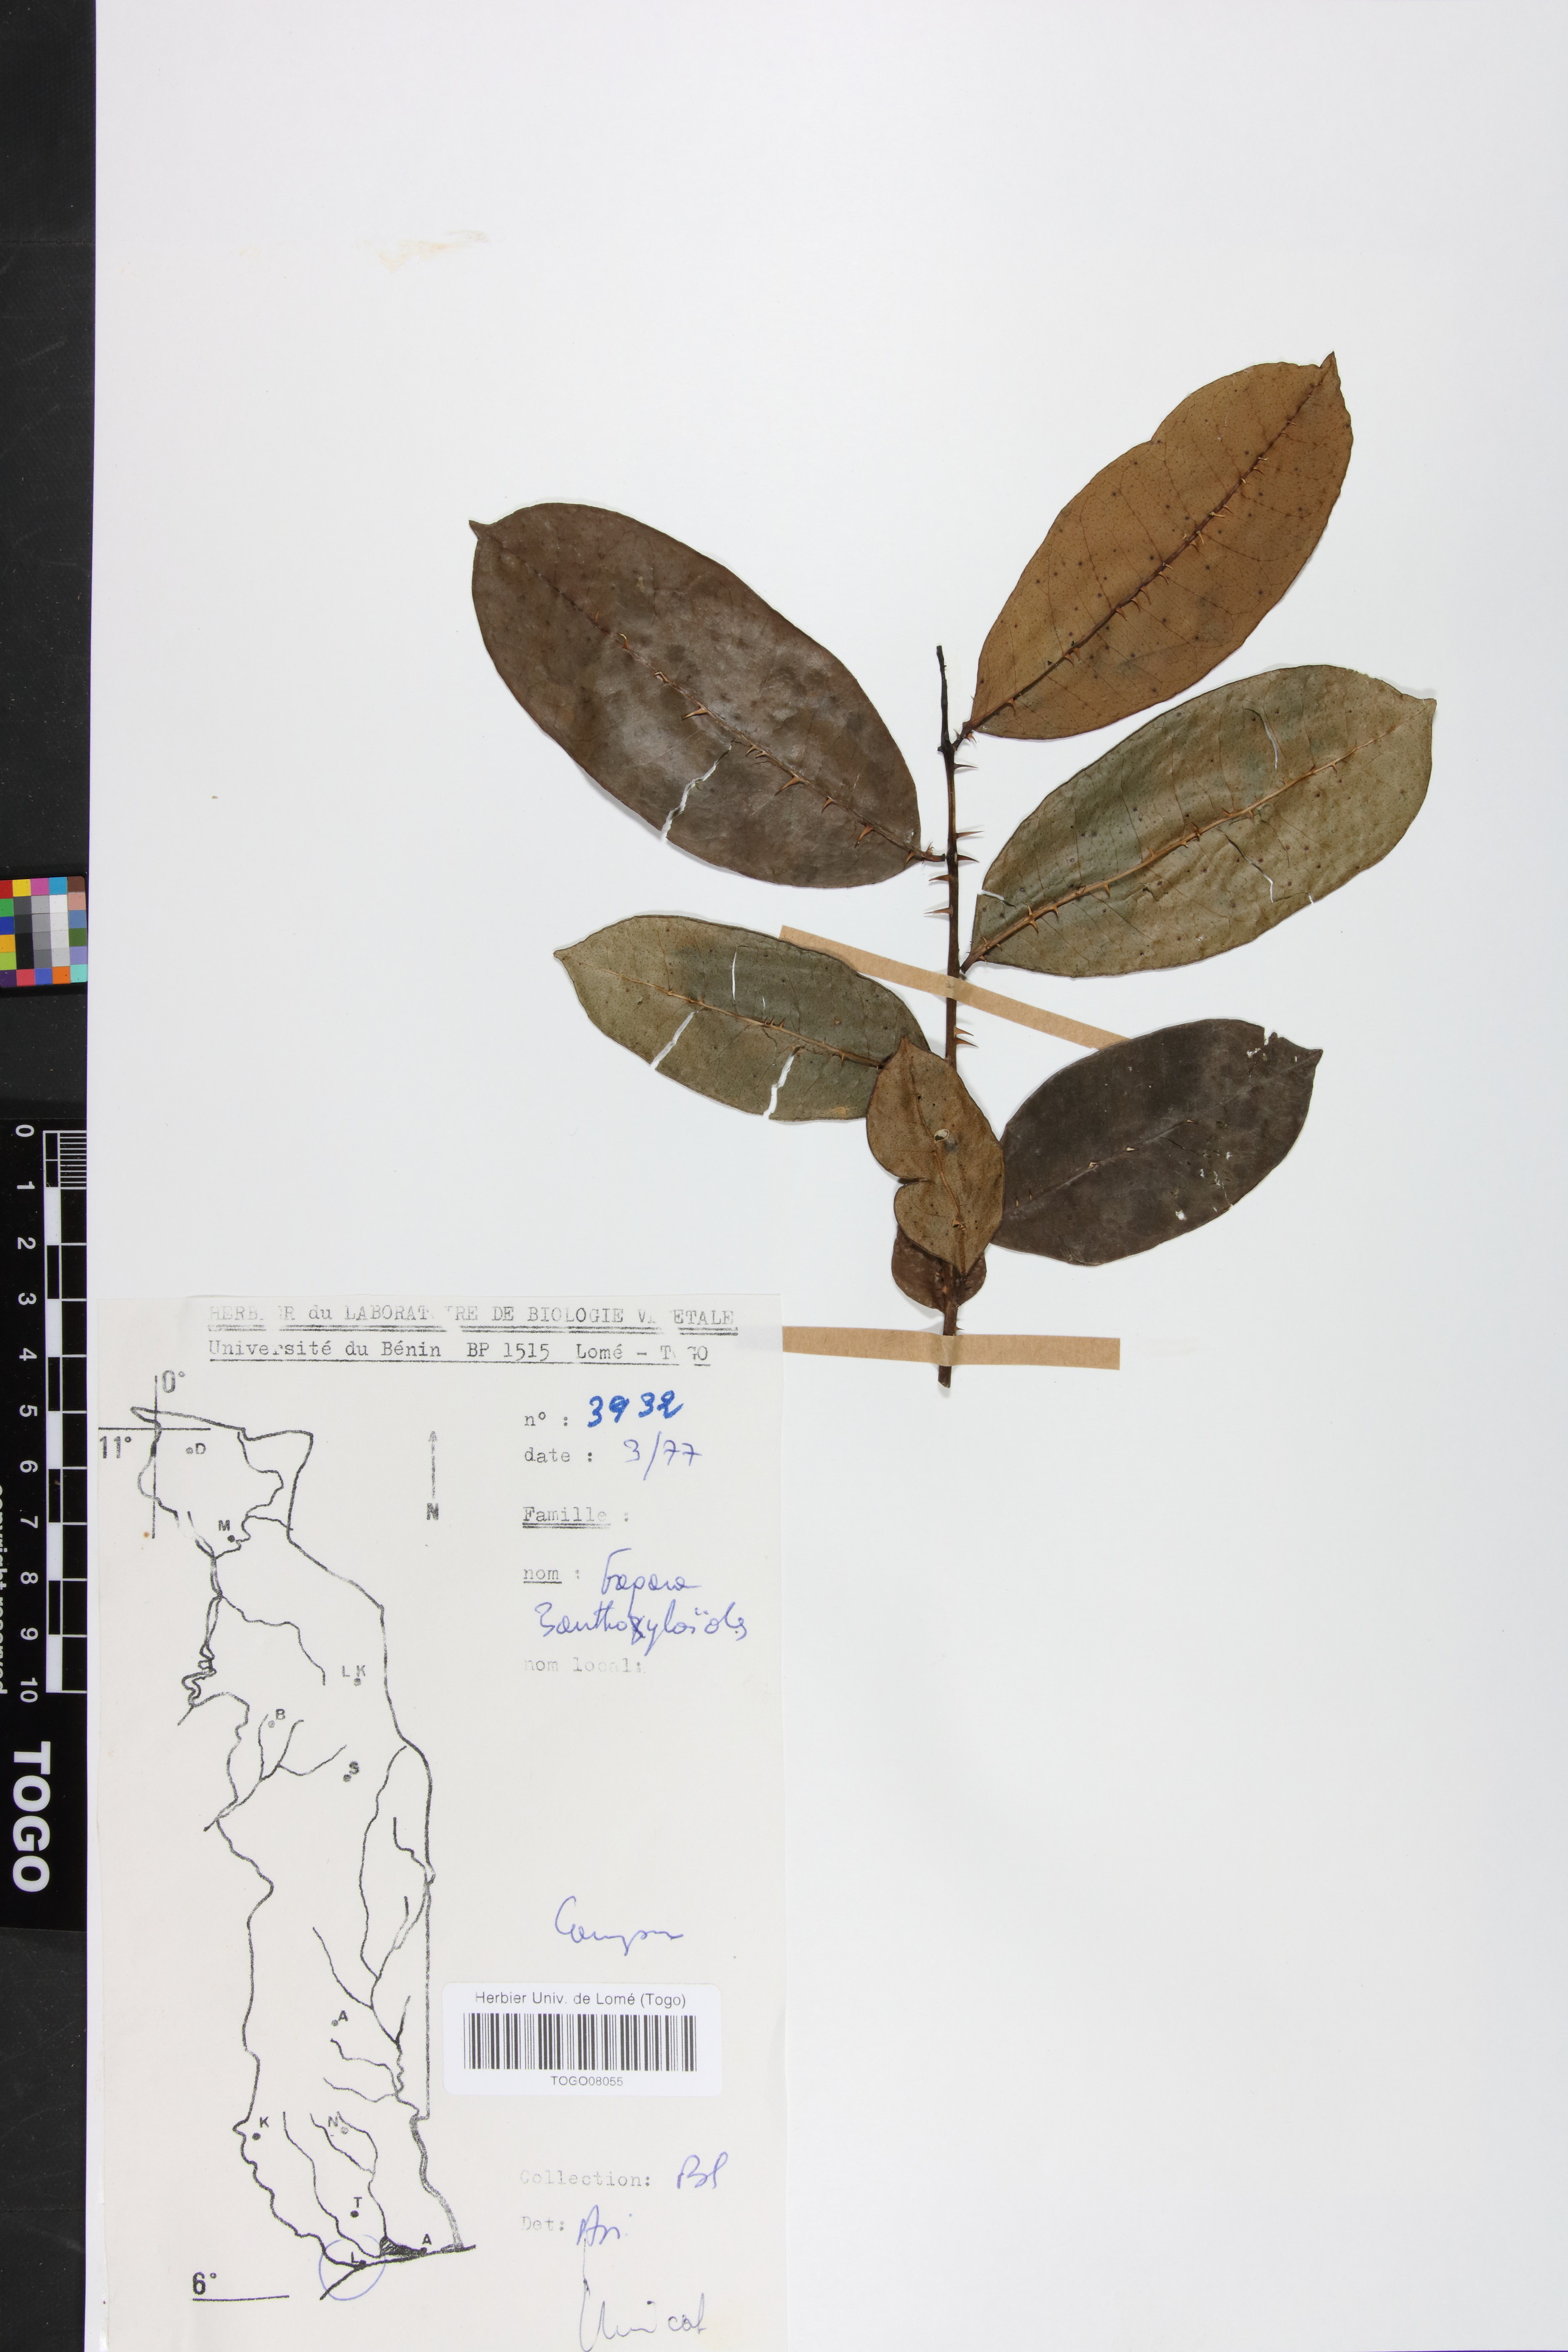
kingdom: Plantae
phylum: Tracheophyta
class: Magnoliopsida
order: Sapindales
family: Rutaceae
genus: Zanthoxylum
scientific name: Zanthoxylum zanthoxyloides
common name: Senegal prickly-ash
